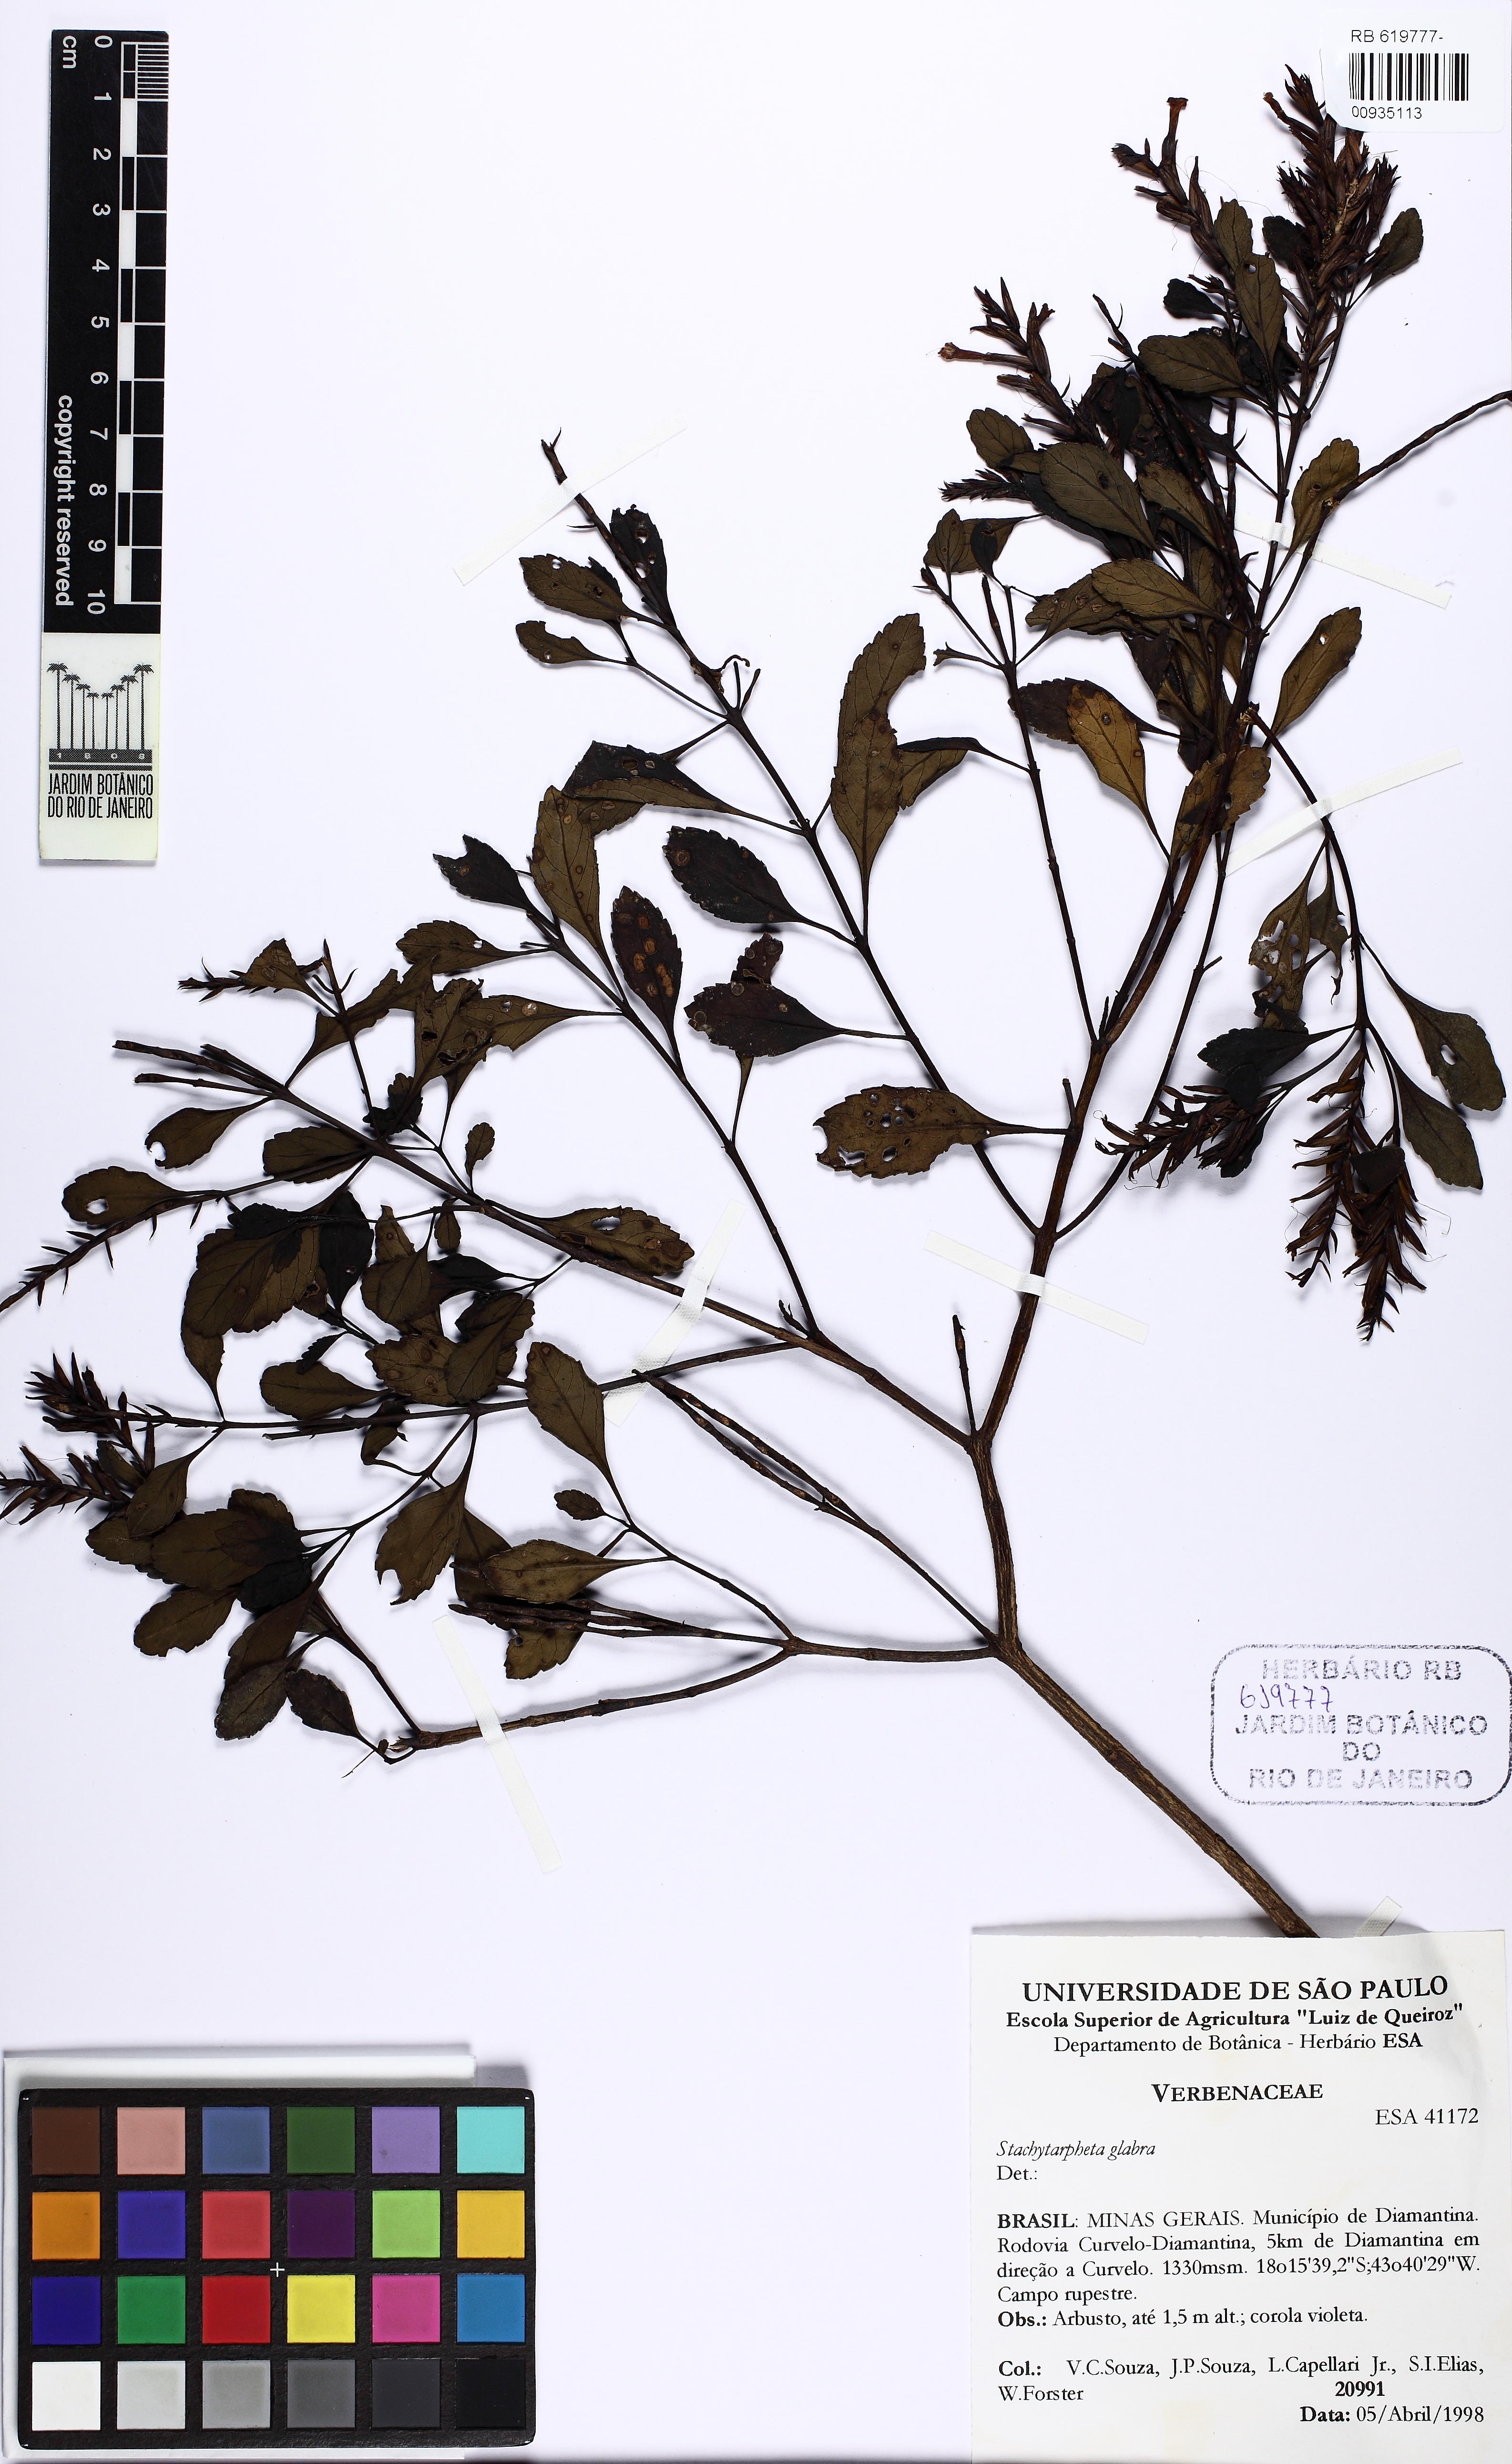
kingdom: Plantae
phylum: Tracheophyta
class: Magnoliopsida
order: Lamiales
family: Verbenaceae
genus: Stachytarpheta
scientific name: Stachytarpheta glabra
